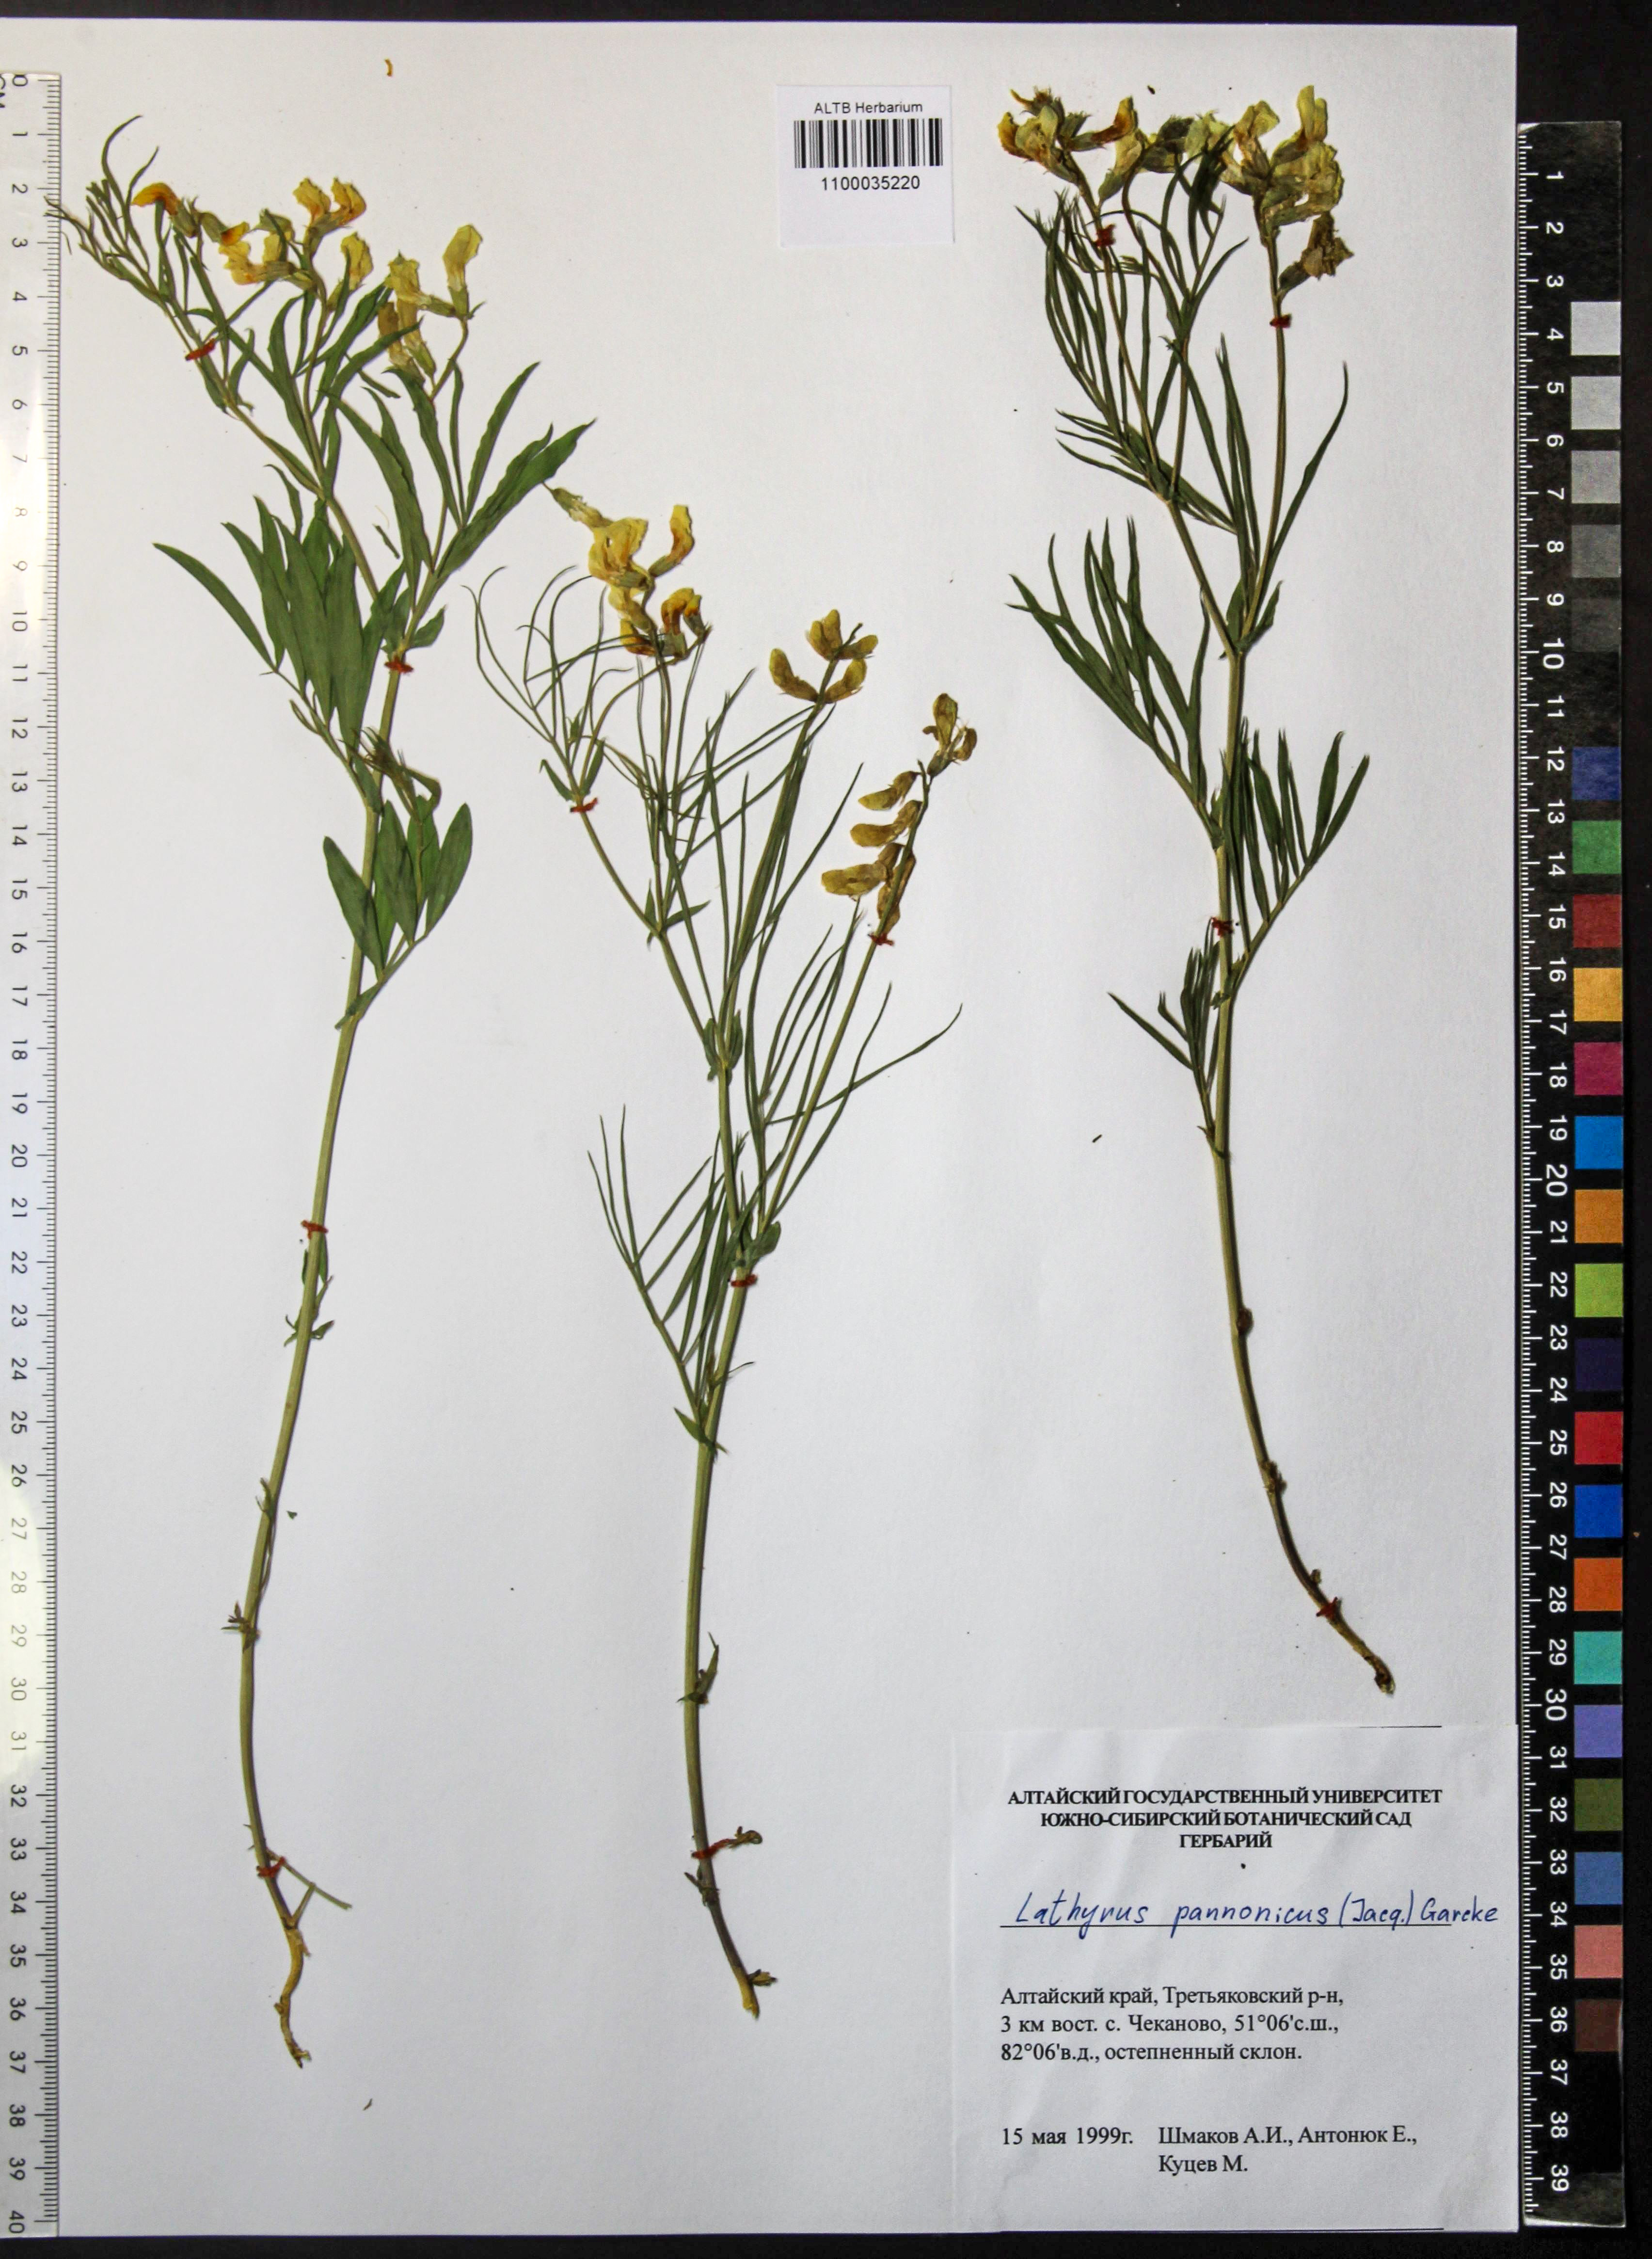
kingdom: Plantae
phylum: Tracheophyta
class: Magnoliopsida
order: Fabales
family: Fabaceae
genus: Lathyrus
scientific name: Lathyrus pannonicus
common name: Pea
